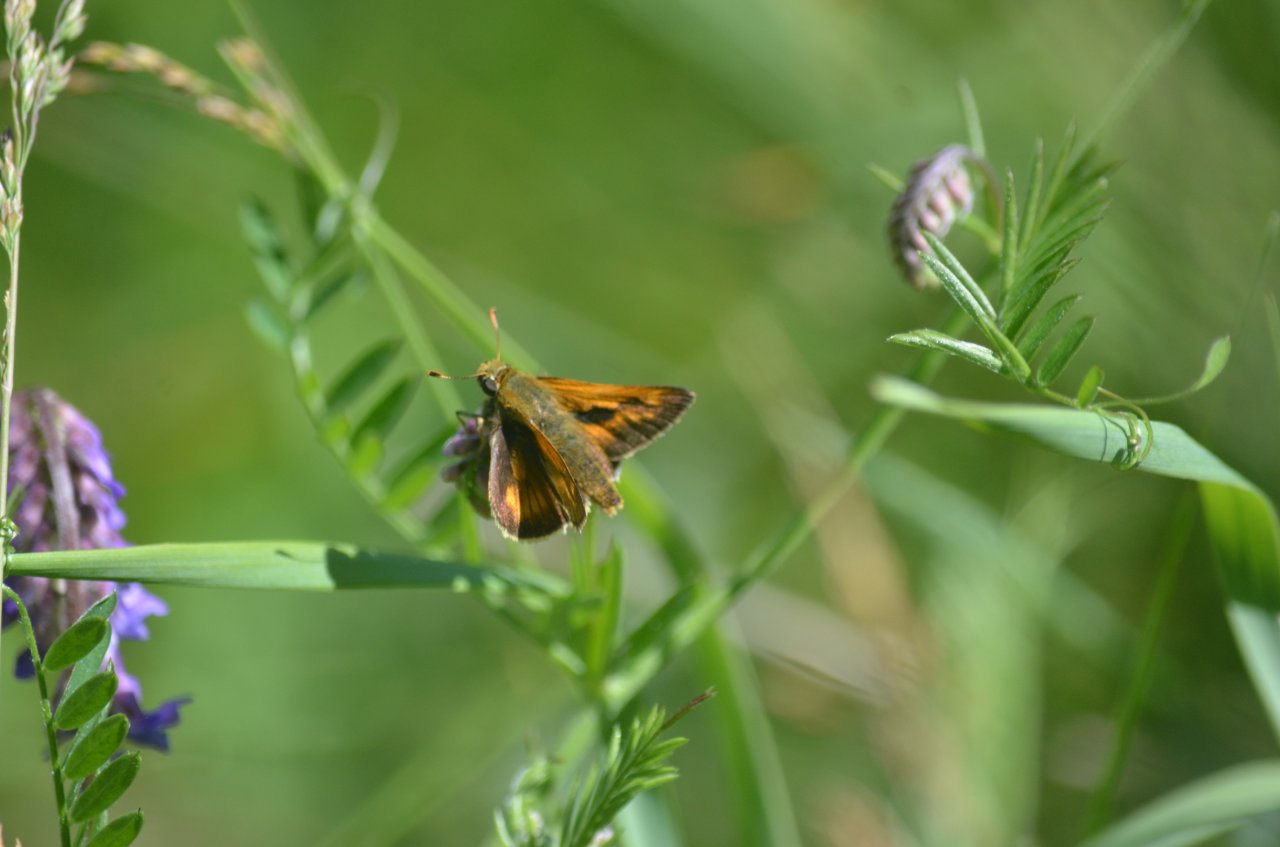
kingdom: Animalia
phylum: Arthropoda
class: Insecta
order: Lepidoptera
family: Hesperiidae
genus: Polites
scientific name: Polites
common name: Long Dash Skipper
